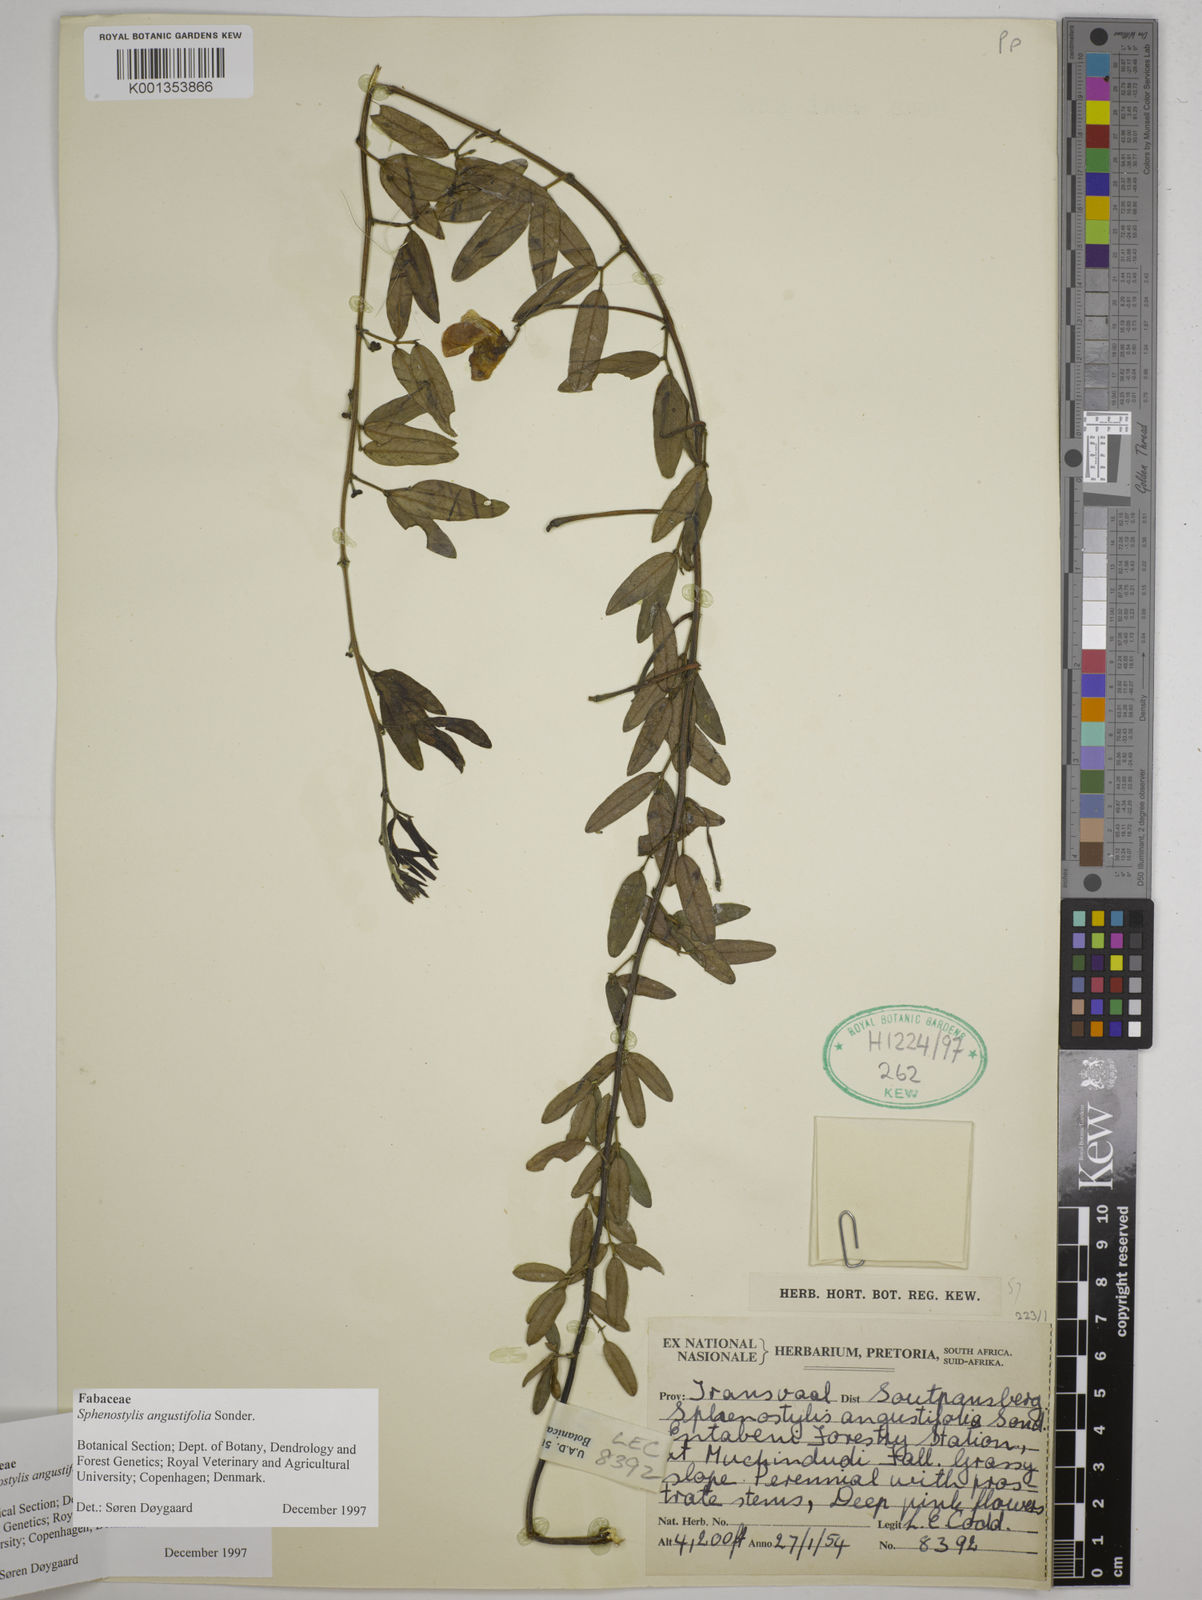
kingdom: Plantae
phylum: Tracheophyta
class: Magnoliopsida
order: Fabales
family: Fabaceae
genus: Sphenostylis
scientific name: Sphenostylis angustifolia
